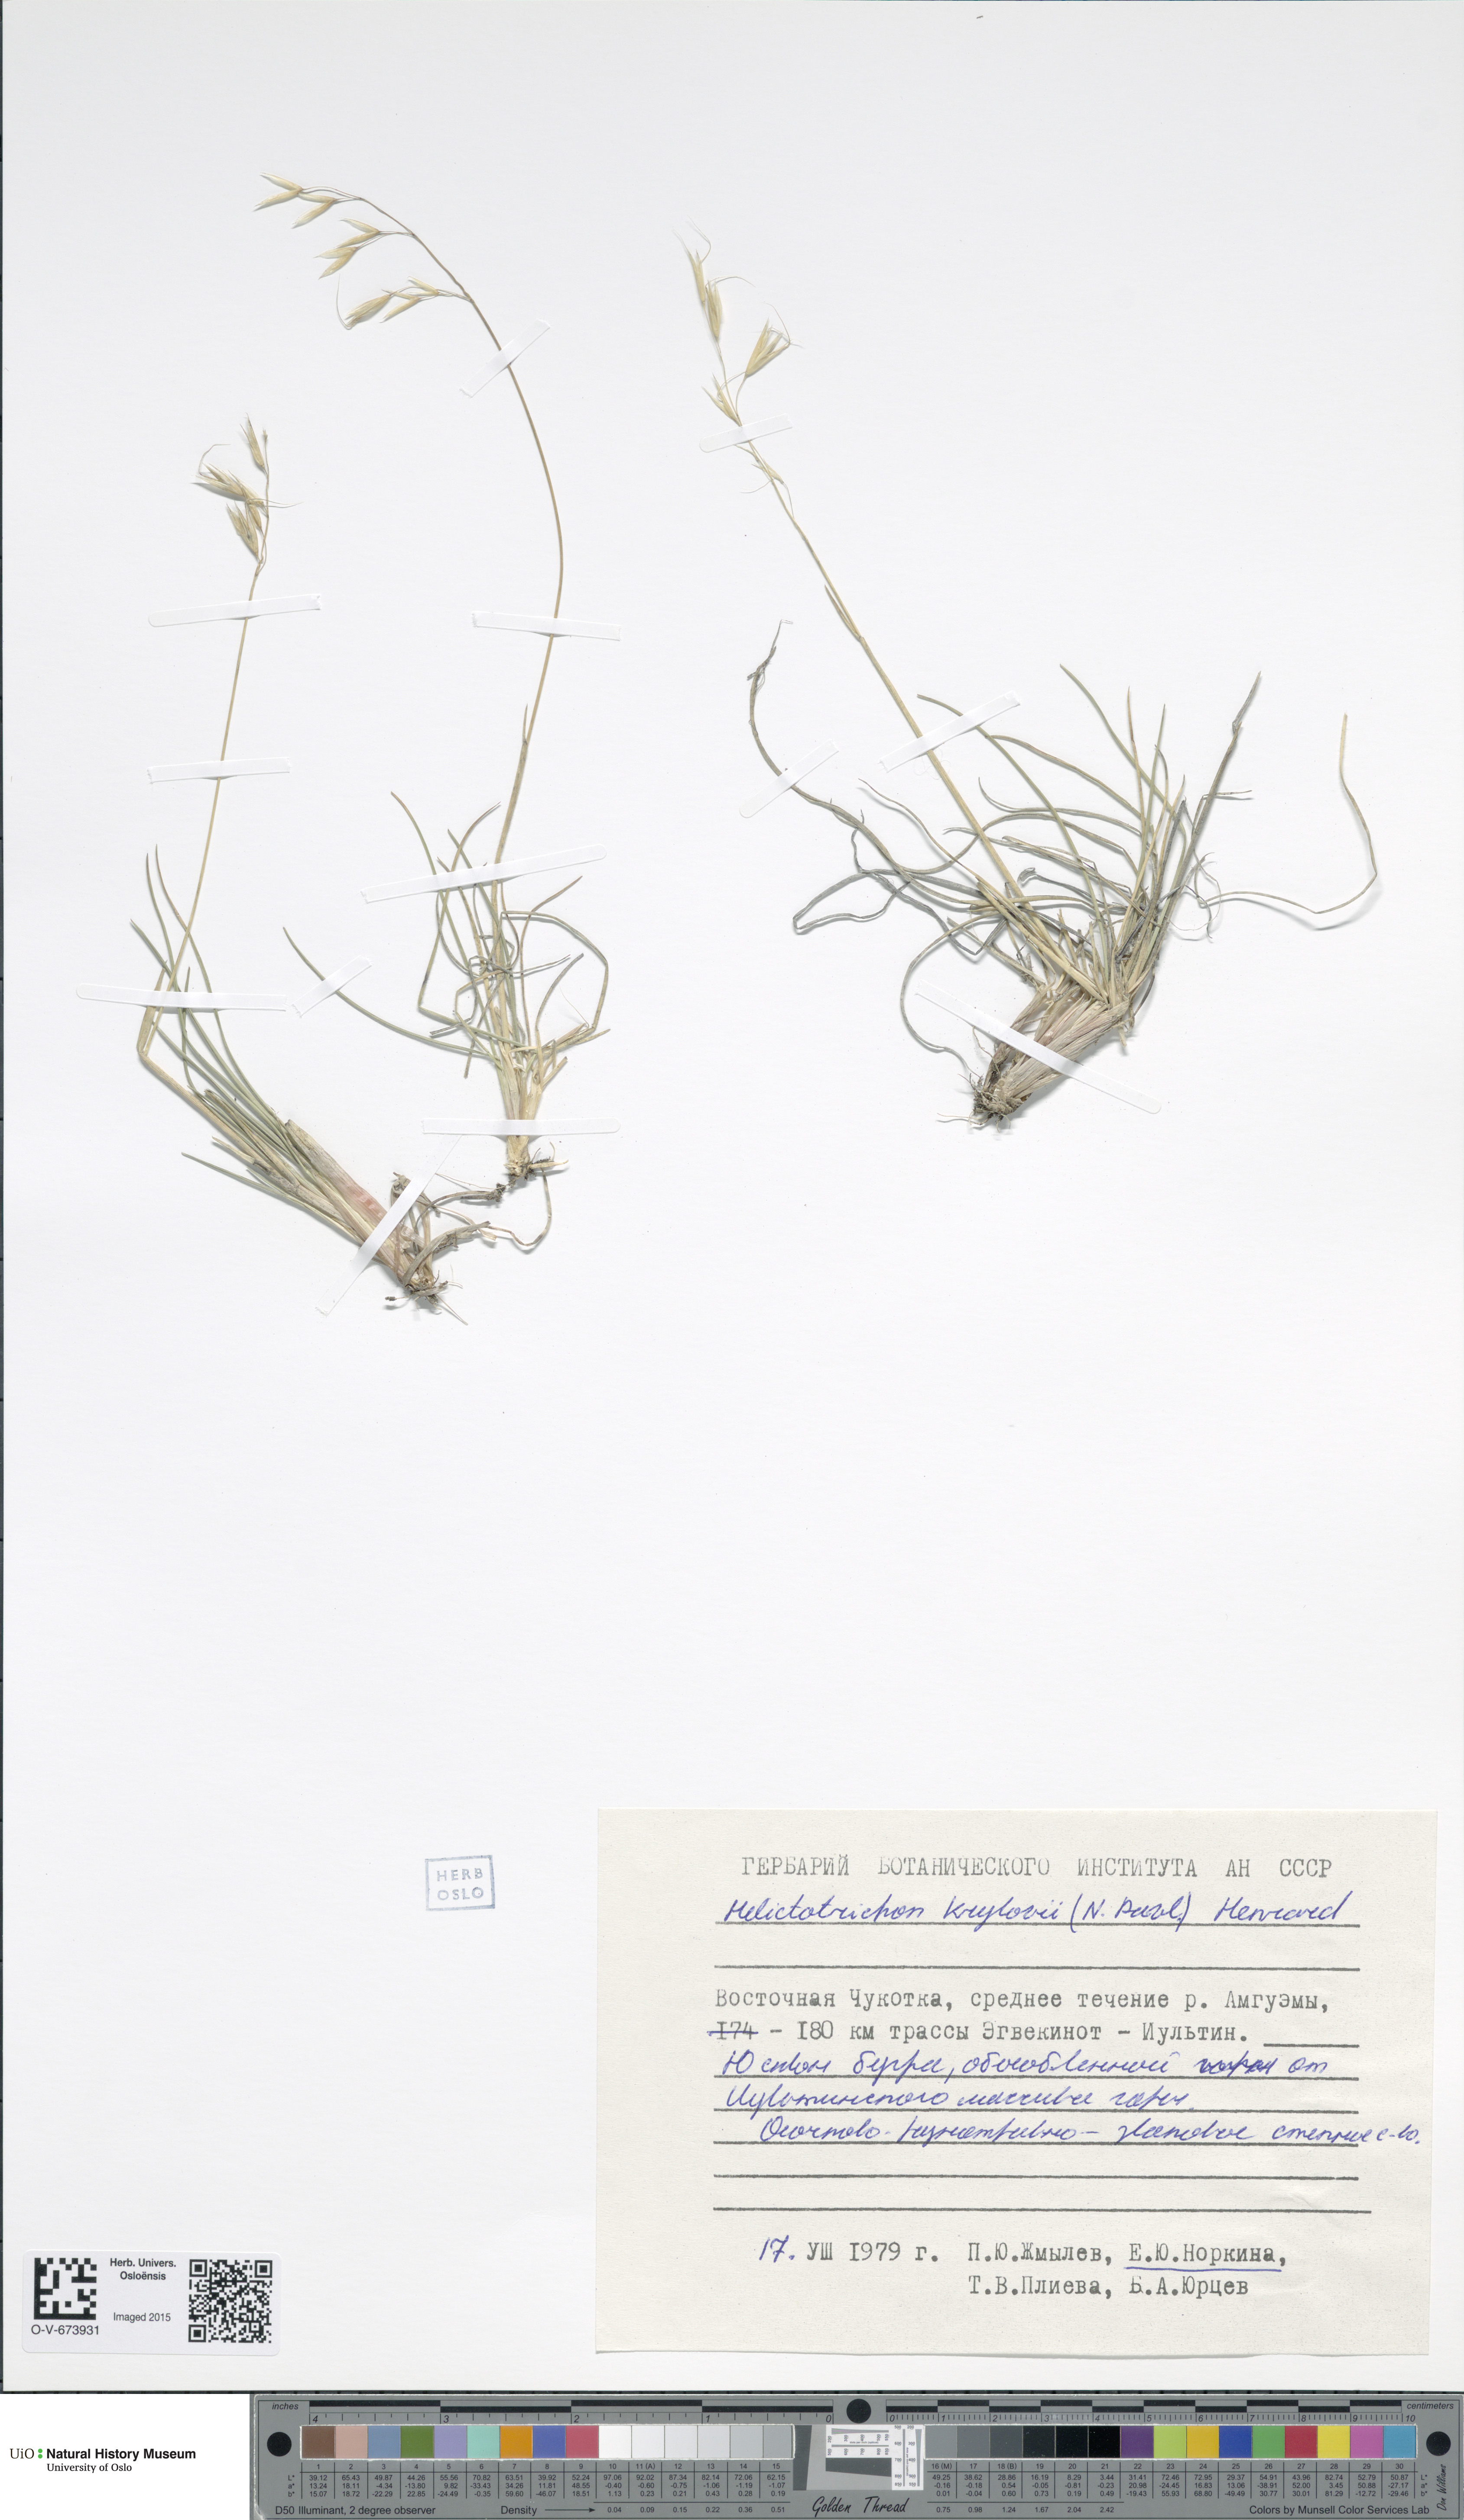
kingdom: Plantae
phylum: Tracheophyta
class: Liliopsida
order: Poales
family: Poaceae
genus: Helictotrichon
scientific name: Helictotrichon krylovii
